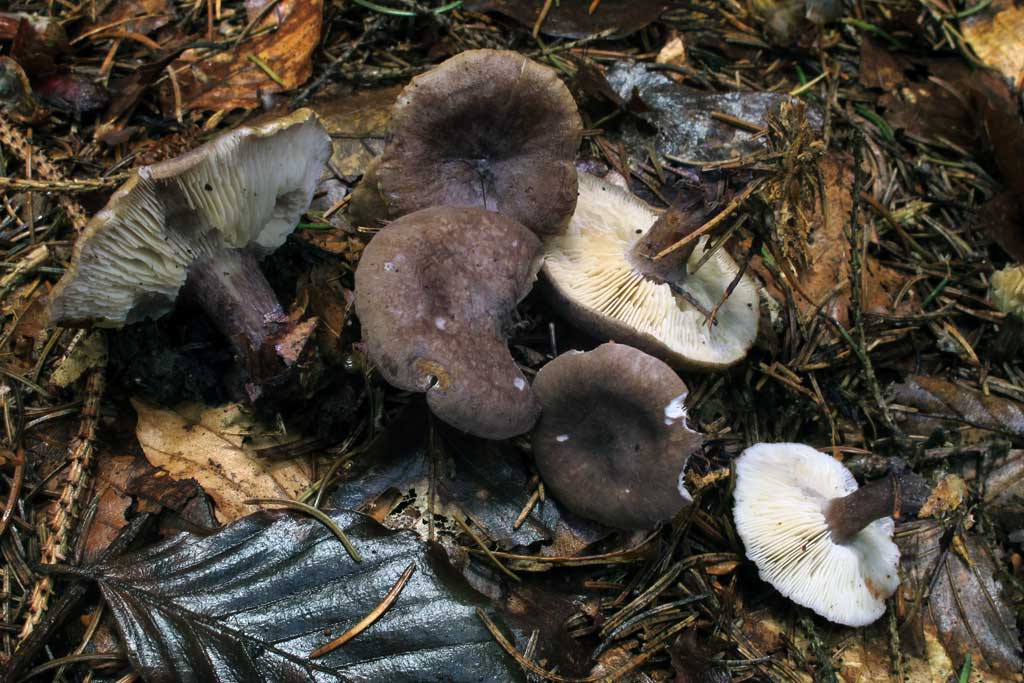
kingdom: Fungi
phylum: Basidiomycota
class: Agaricomycetes
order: Agaricales
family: Lyophyllaceae
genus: Calocybe
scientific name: Calocybe obscurissima
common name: mørk fagerhat
